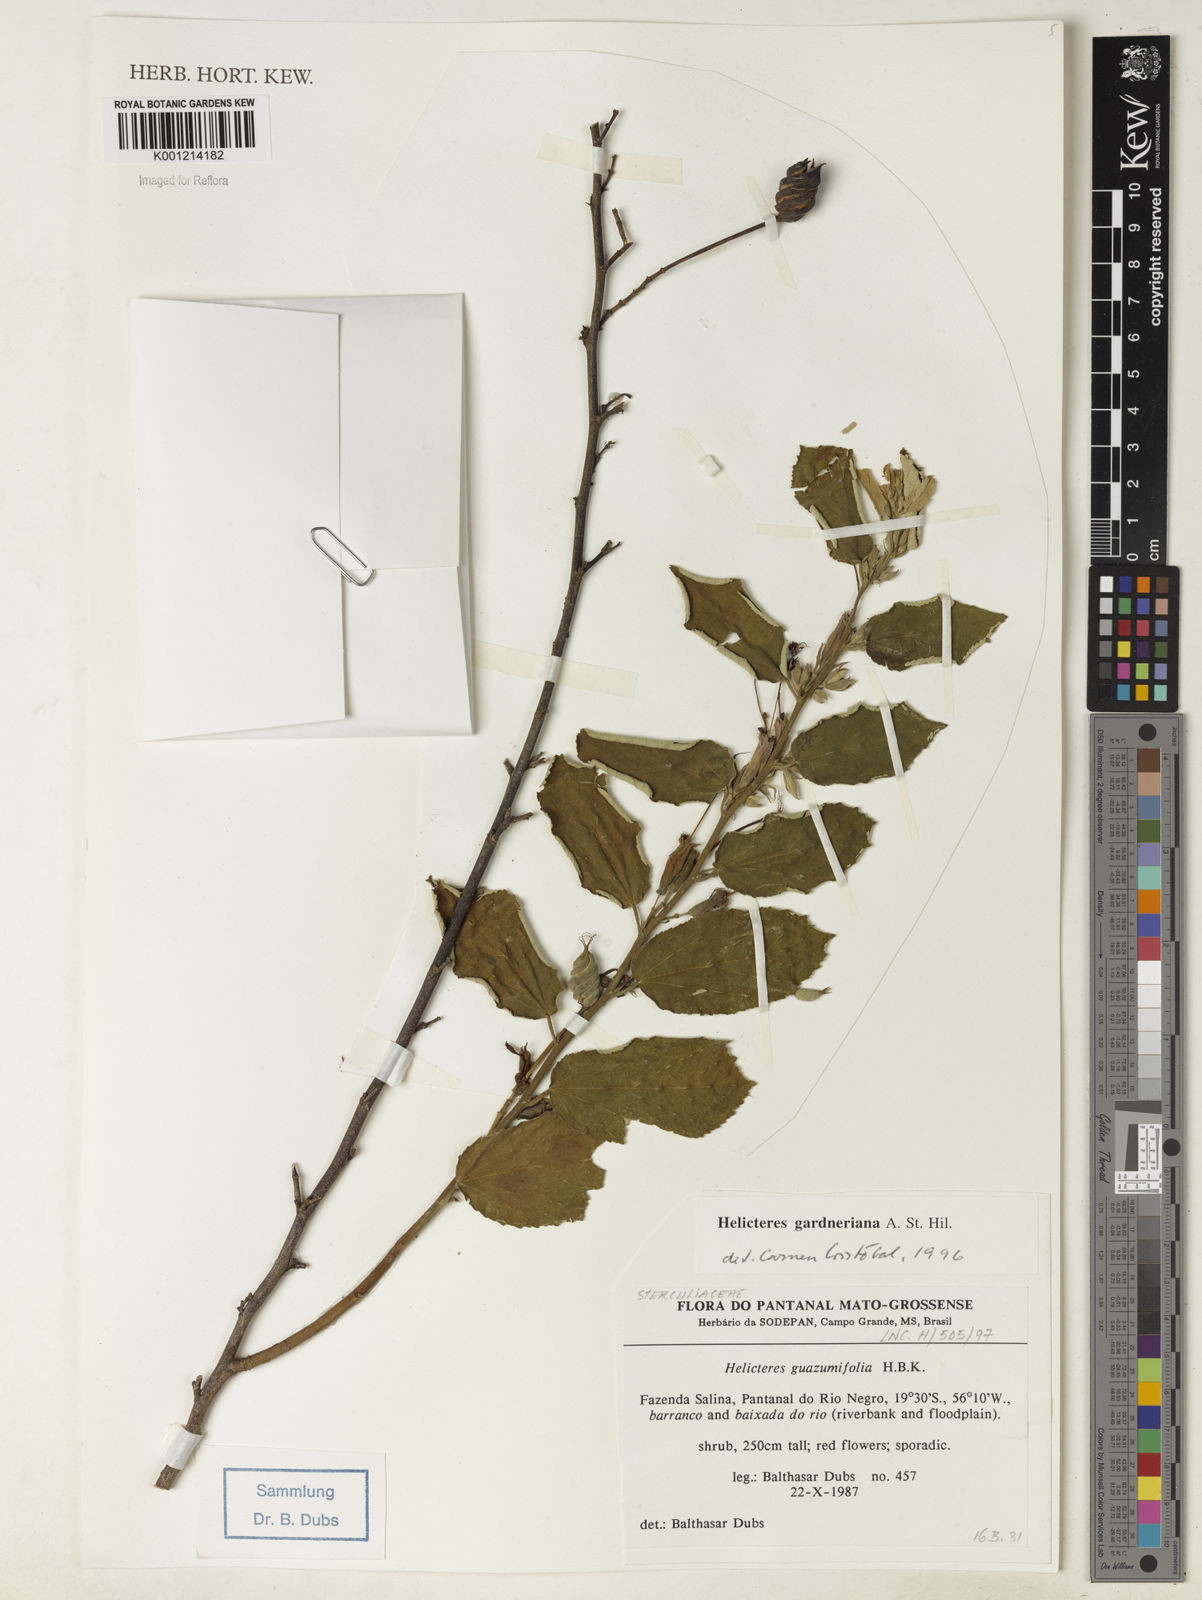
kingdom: Plantae
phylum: Tracheophyta
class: Magnoliopsida
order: Malvales
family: Malvaceae
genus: Helicteres
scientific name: Helicteres guazumifolia
